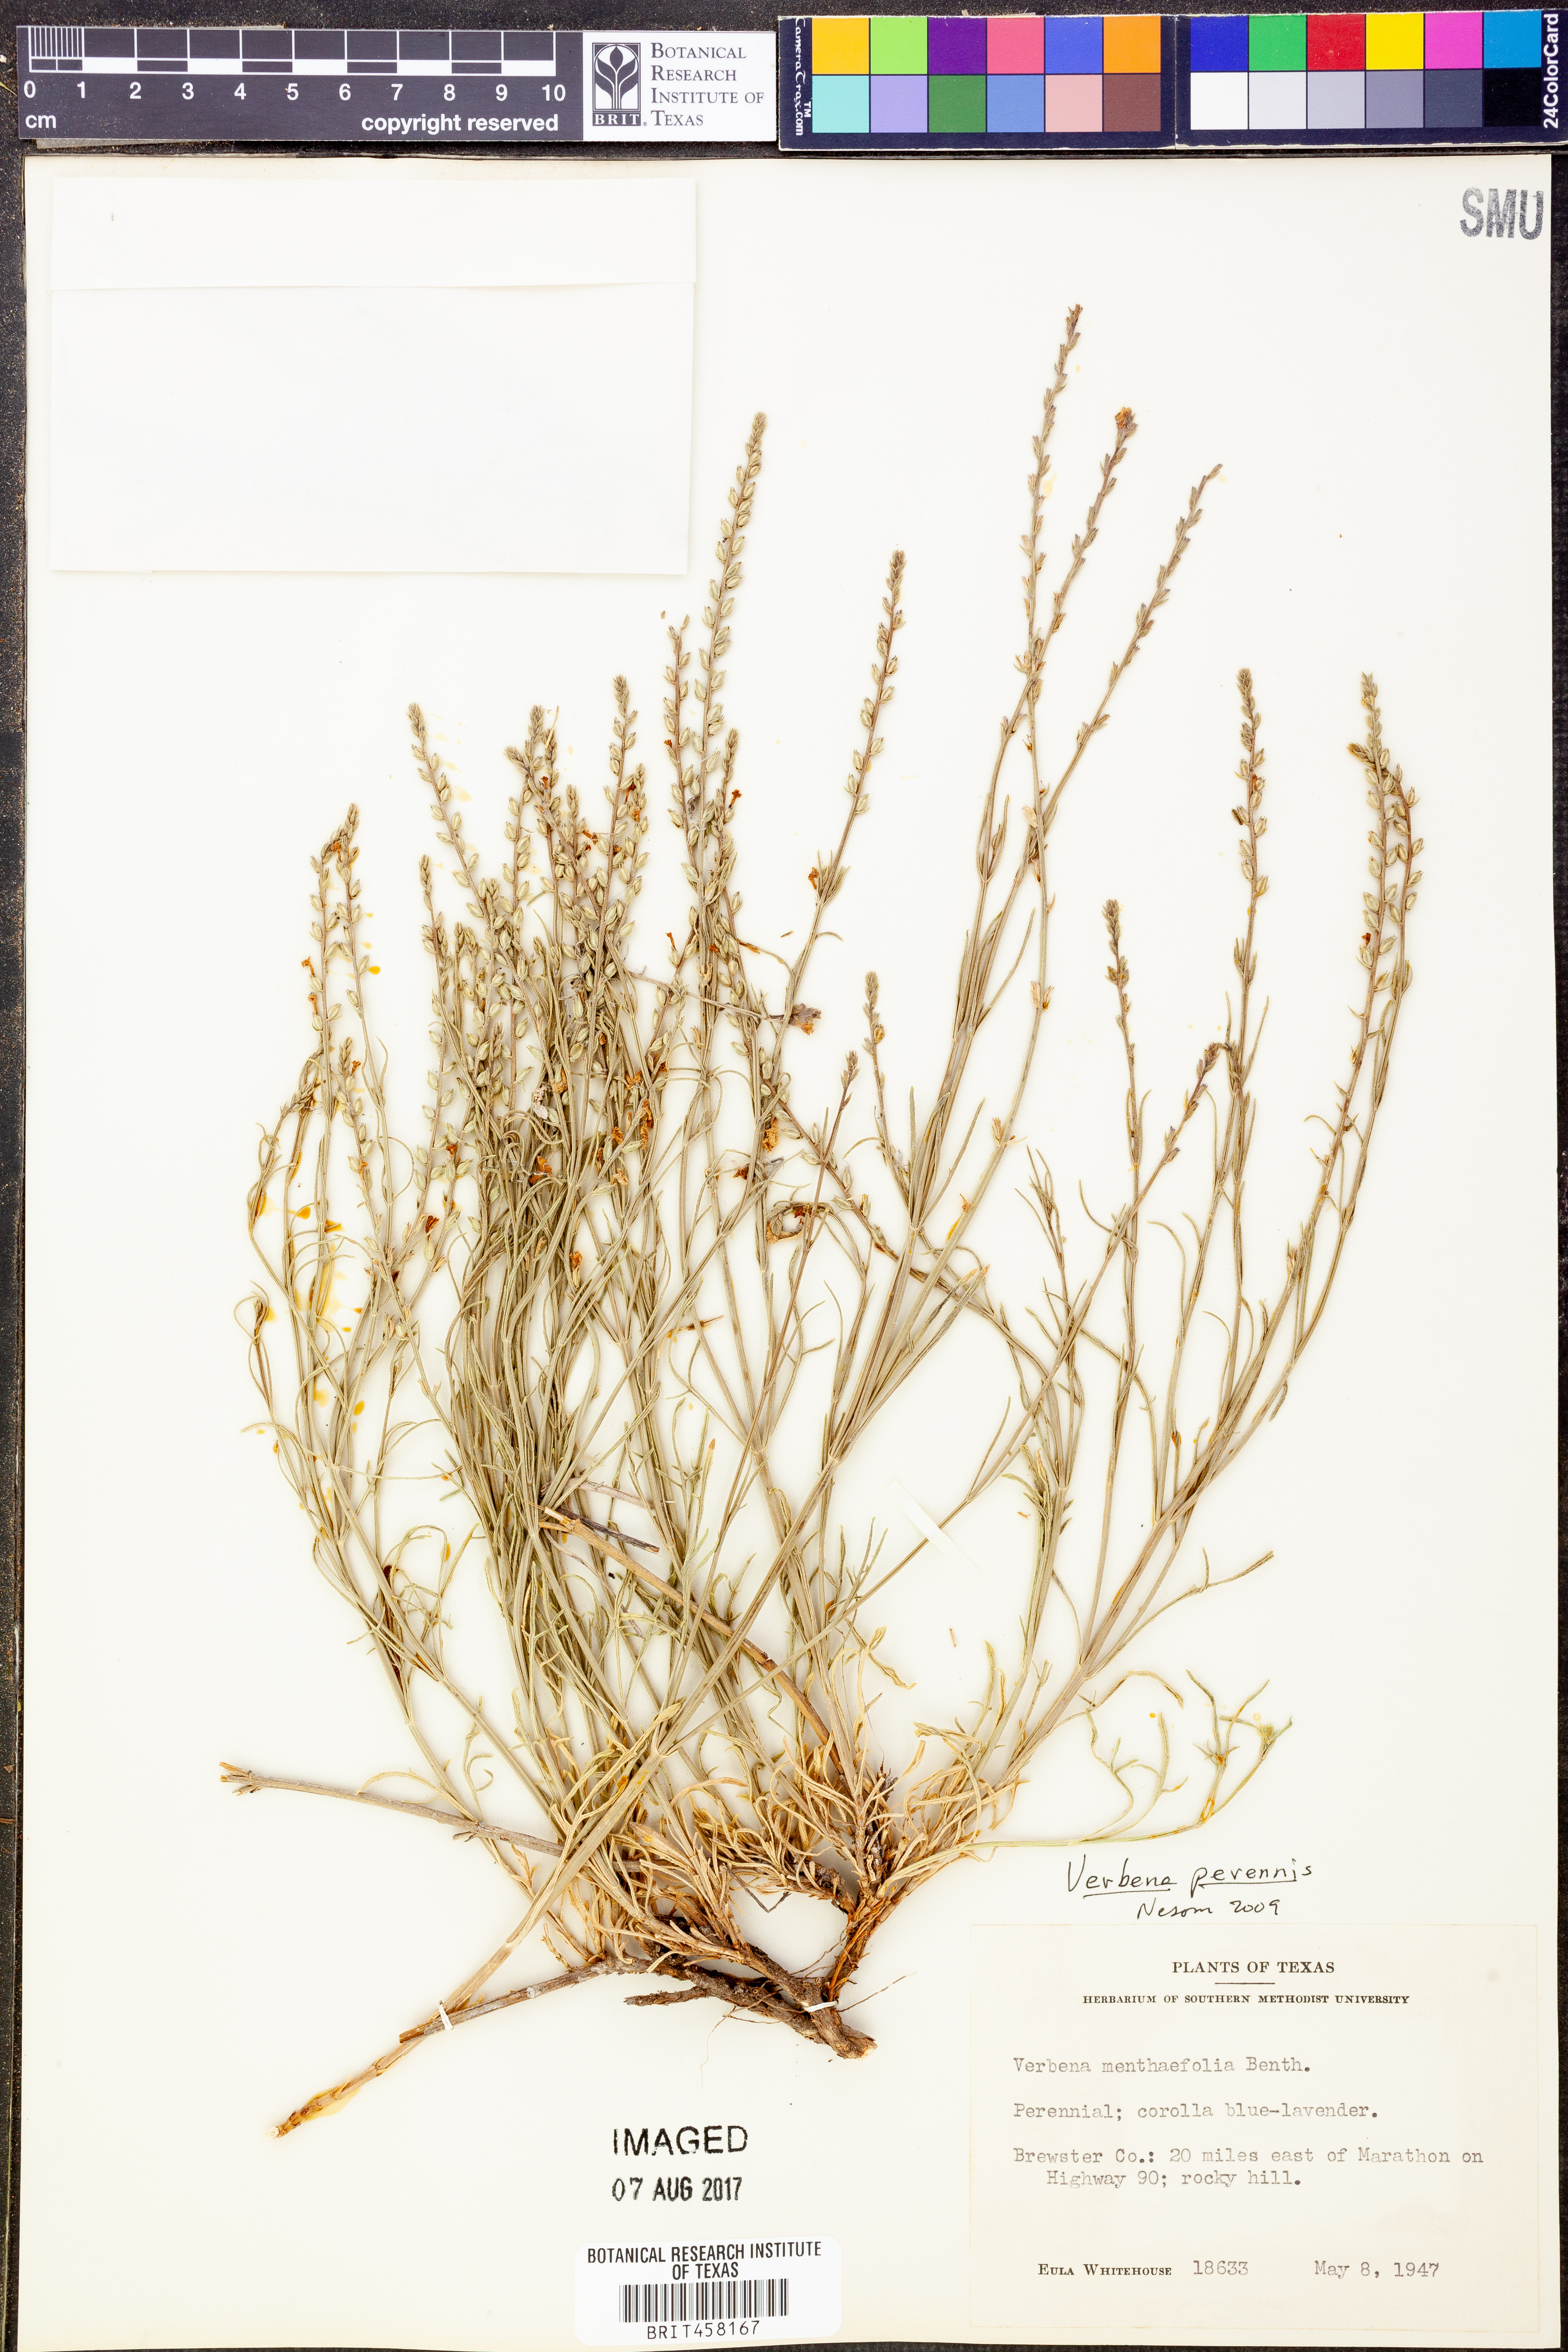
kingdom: Plantae
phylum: Tracheophyta
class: Magnoliopsida
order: Lamiales
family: Verbenaceae
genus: Verbena
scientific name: Verbena perennis
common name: Pin-leaf vervain
